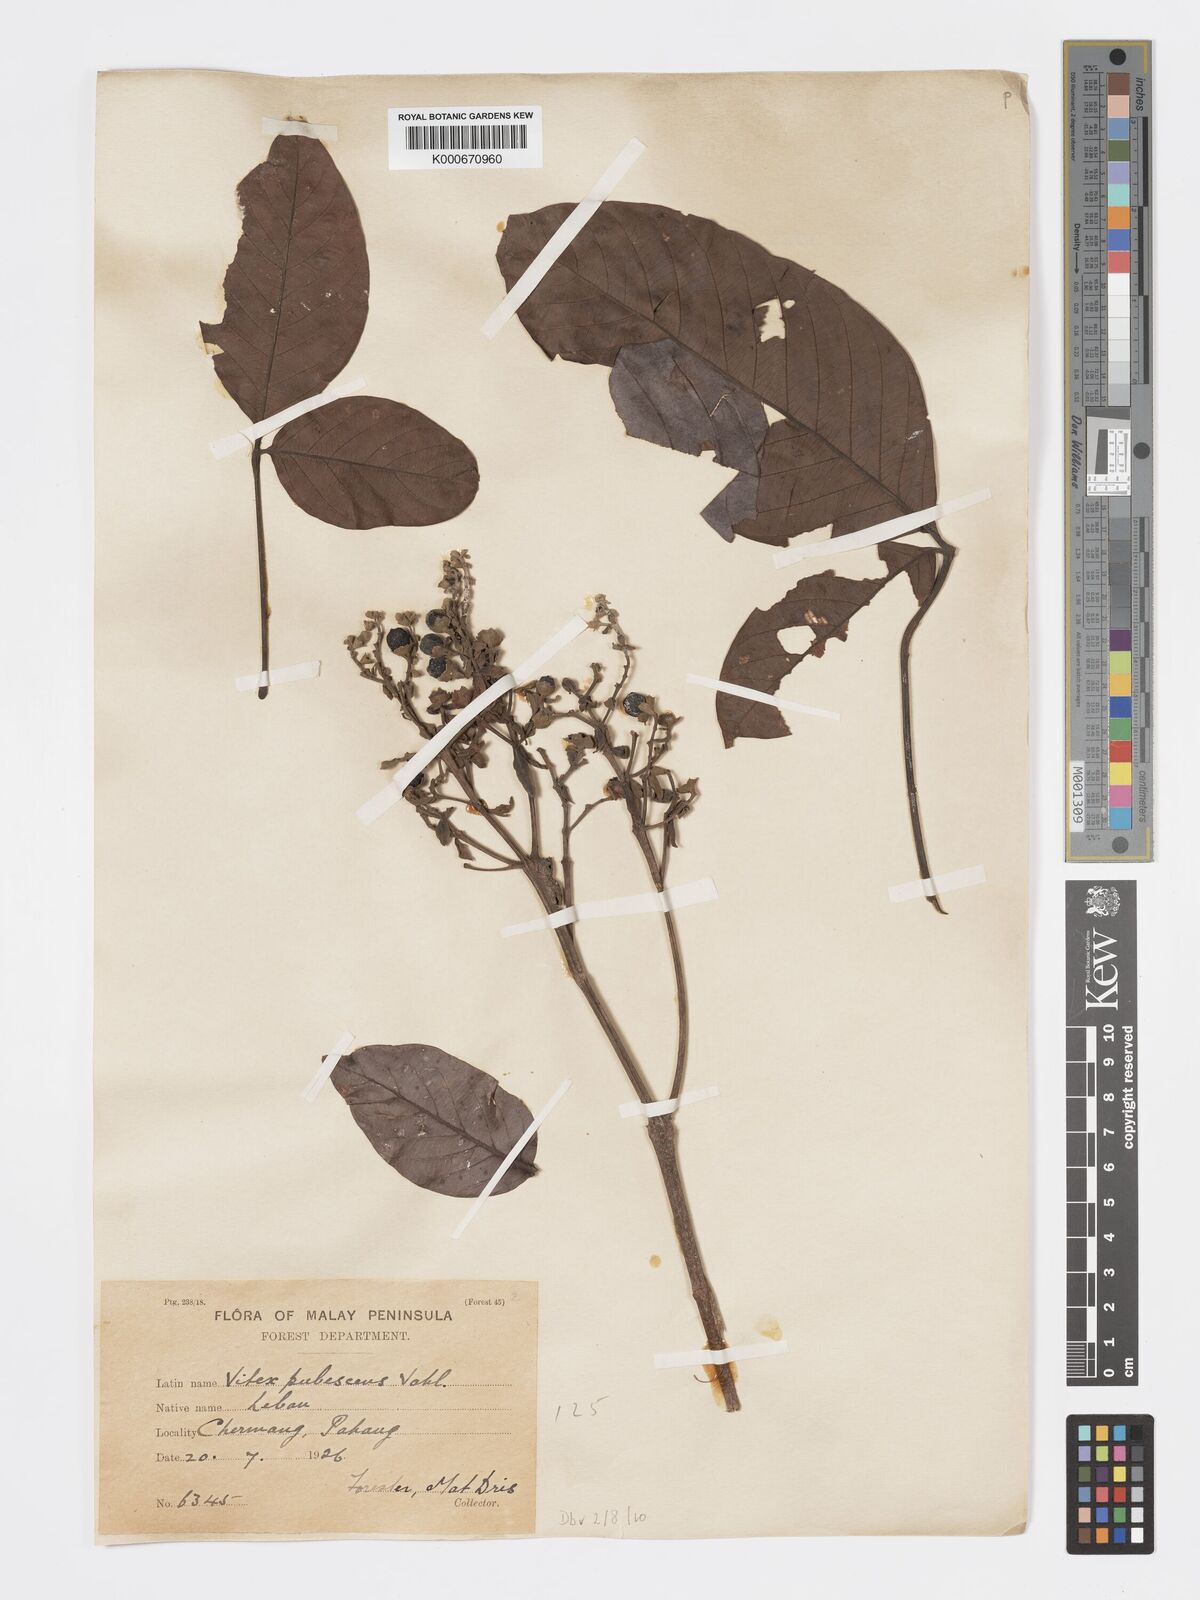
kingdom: Plantae
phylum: Tracheophyta
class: Magnoliopsida
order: Lamiales
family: Lamiaceae
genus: Vitex
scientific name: Vitex pinnata
